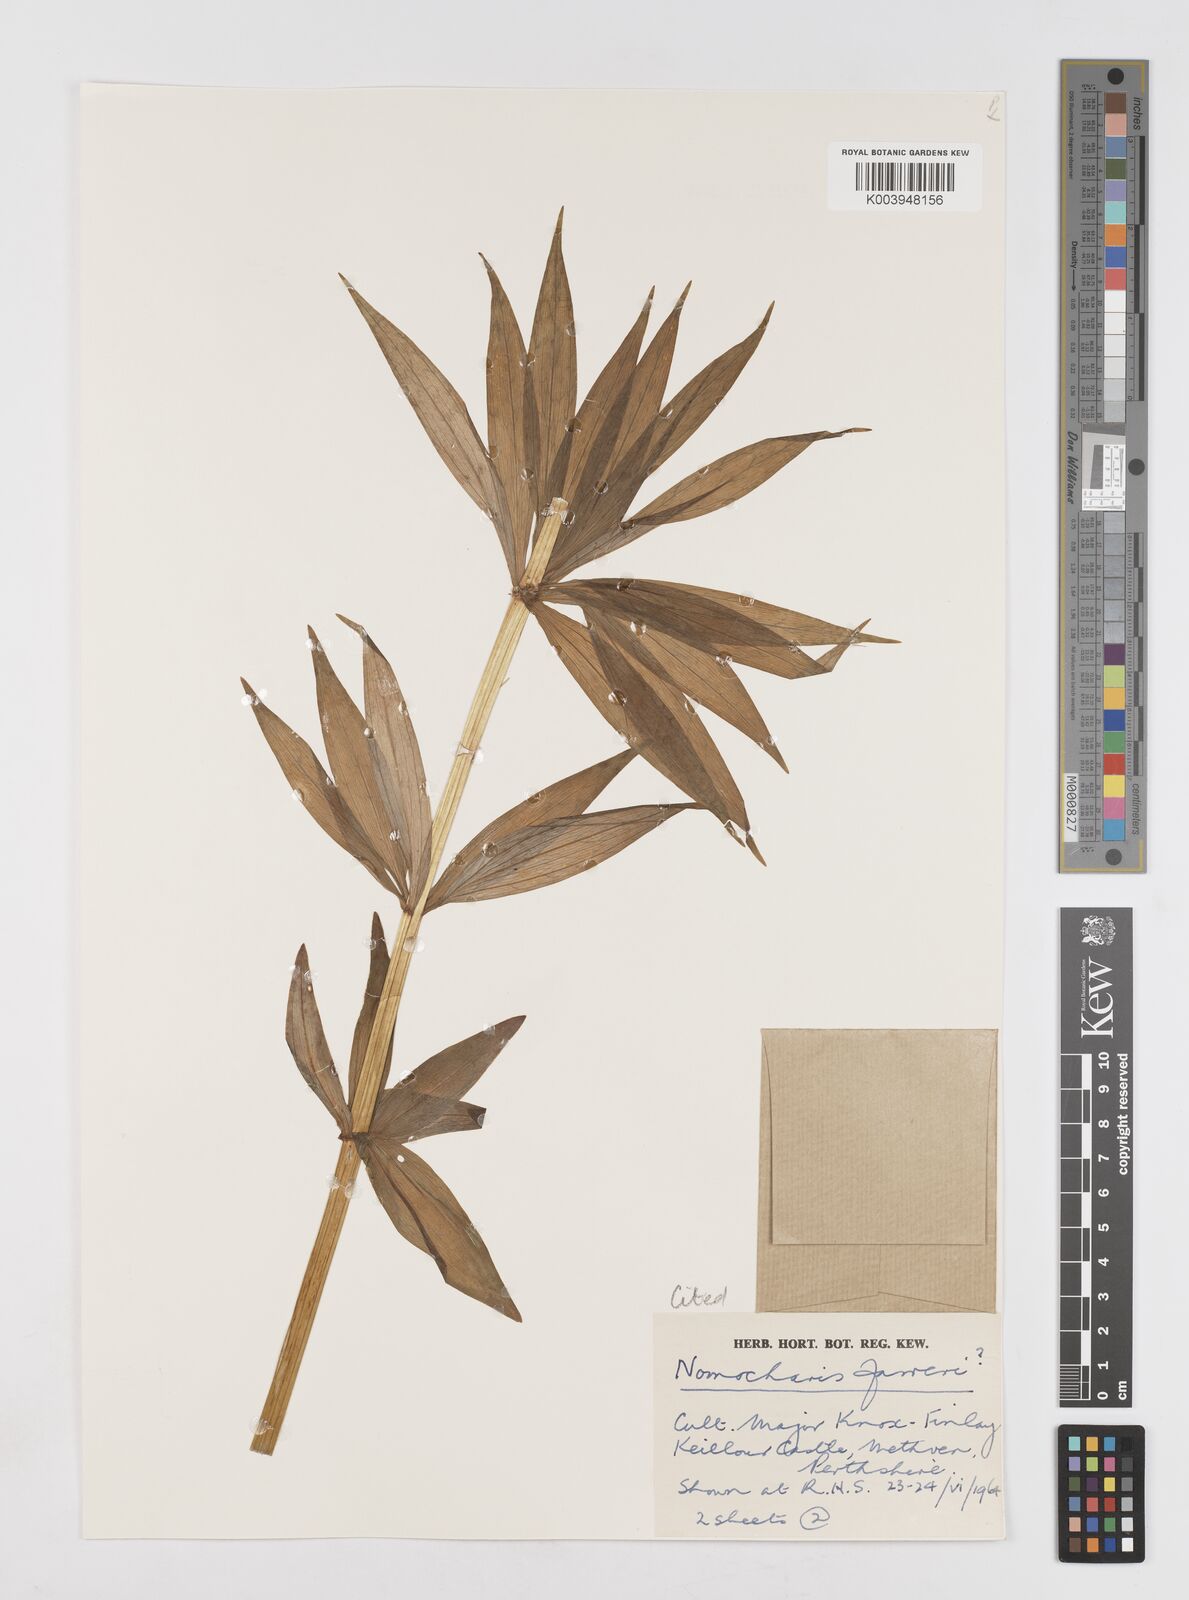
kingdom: Plantae
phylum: Tracheophyta
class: Liliopsida
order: Liliales
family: Liliaceae
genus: Lilium
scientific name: Lilium Nomocharis finlayorum
